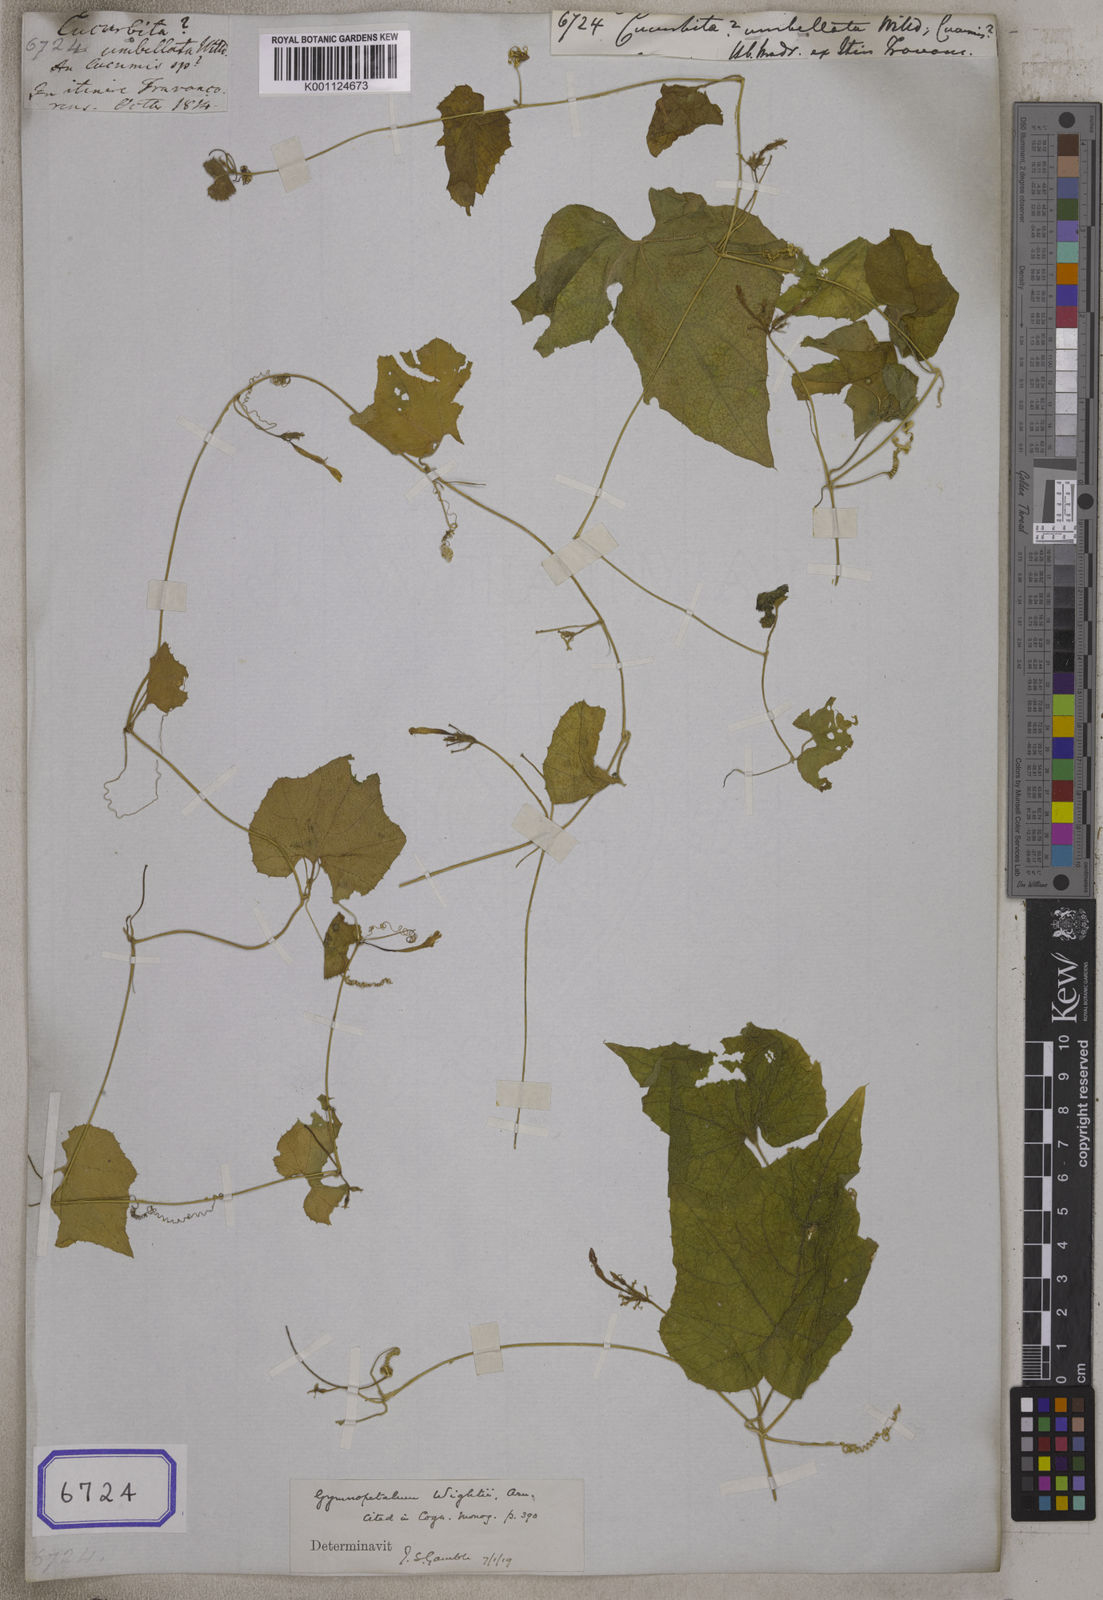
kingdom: Plantae
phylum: Tracheophyta
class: Magnoliopsida
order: Cucurbitales
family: Cucurbitaceae
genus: Cucurbita
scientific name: Cucurbita
